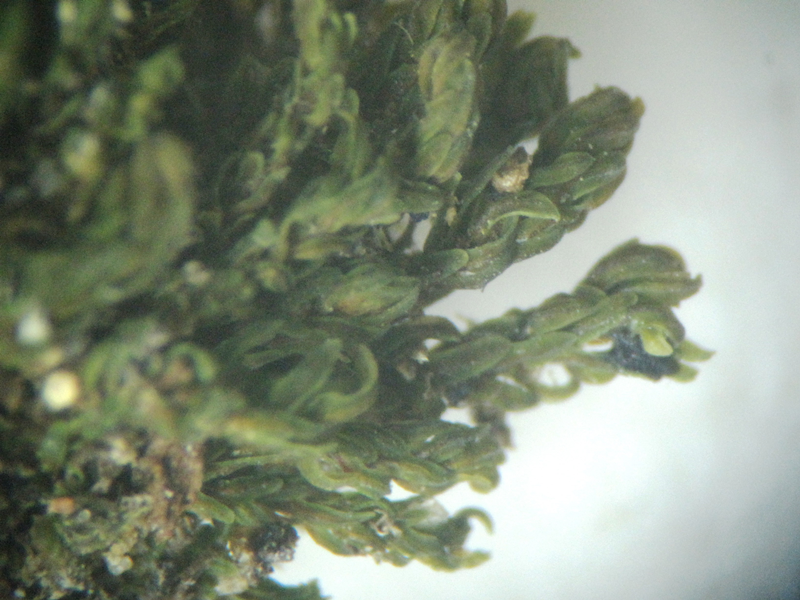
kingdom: Plantae
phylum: Bryophyta
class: Bryopsida
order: Orthotrichales
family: Orthotrichaceae
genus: Leratia
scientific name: Leratia obtusifolia
